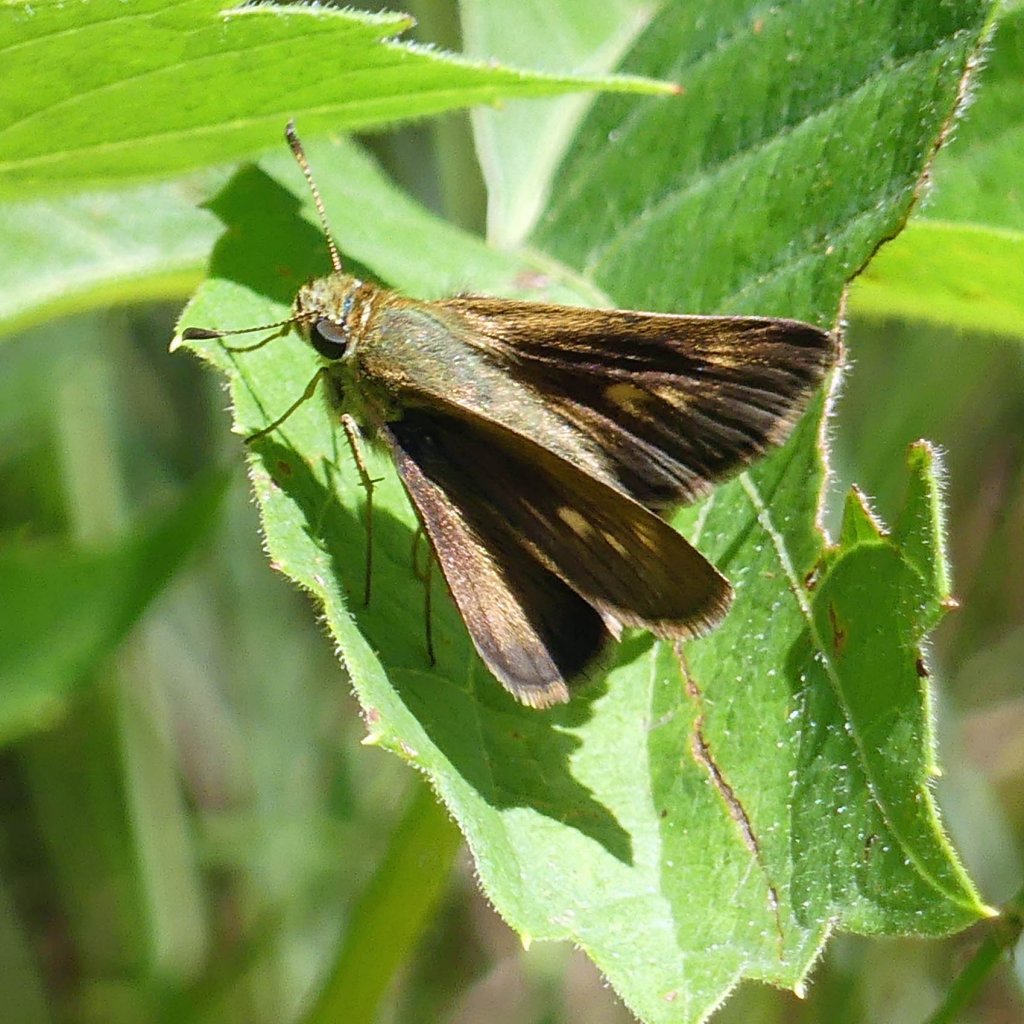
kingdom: Animalia
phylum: Arthropoda
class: Insecta
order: Lepidoptera
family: Hesperiidae
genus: Polites
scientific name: Polites
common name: Crossline Skipper
